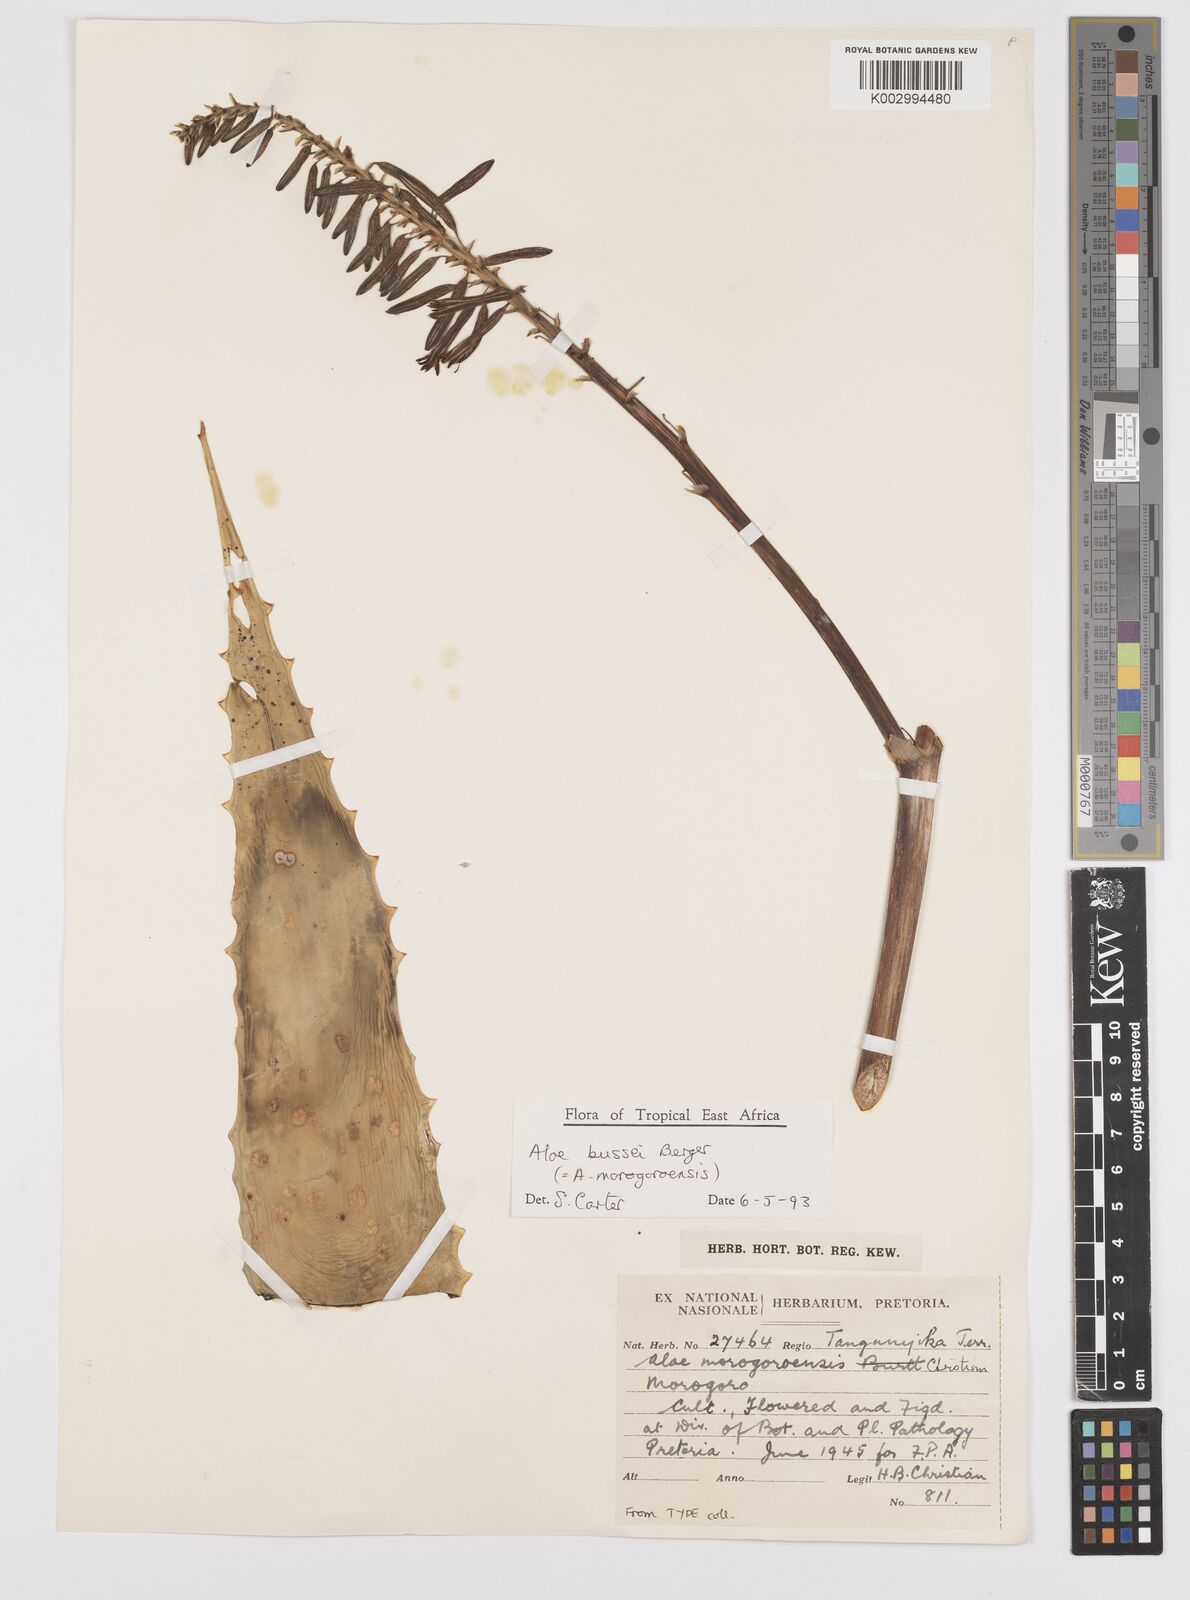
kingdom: Plantae
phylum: Tracheophyta
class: Liliopsida
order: Asparagales
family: Asphodelaceae
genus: Aloe
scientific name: Aloe bussei
